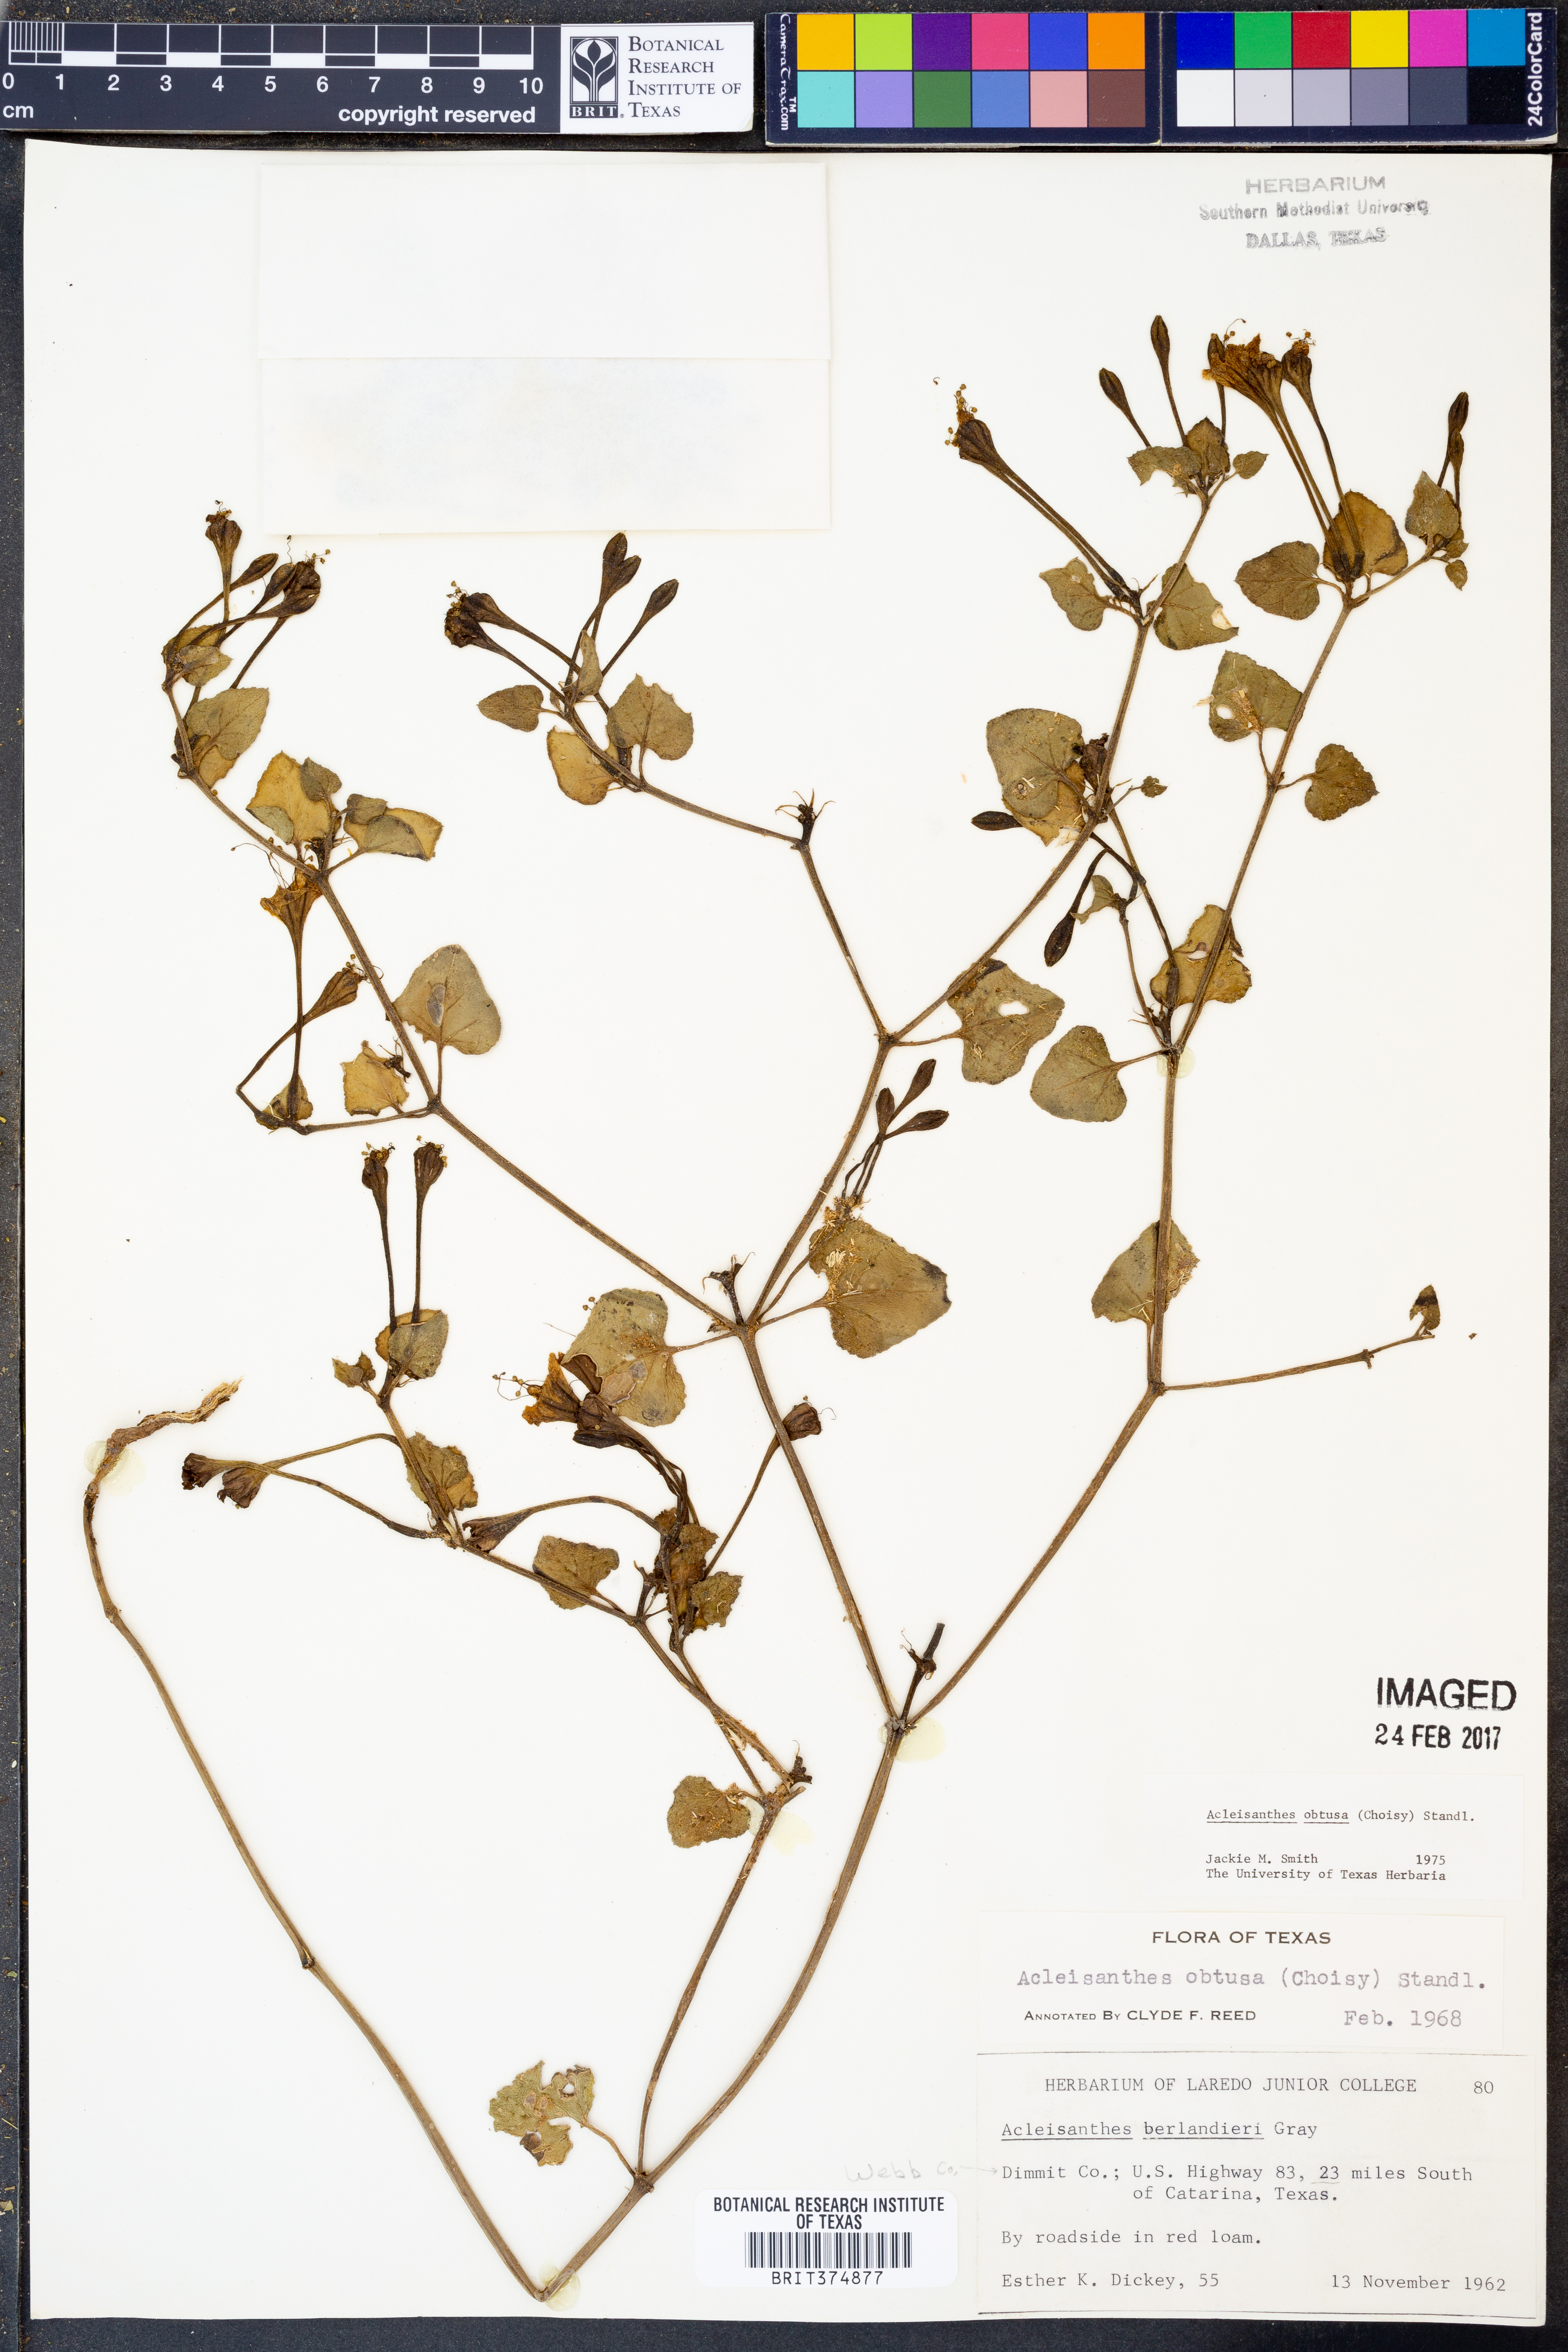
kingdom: Plantae
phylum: Tracheophyta
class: Magnoliopsida
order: Caryophyllales
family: Nyctaginaceae
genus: Acleisanthes
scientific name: Acleisanthes obtusa
